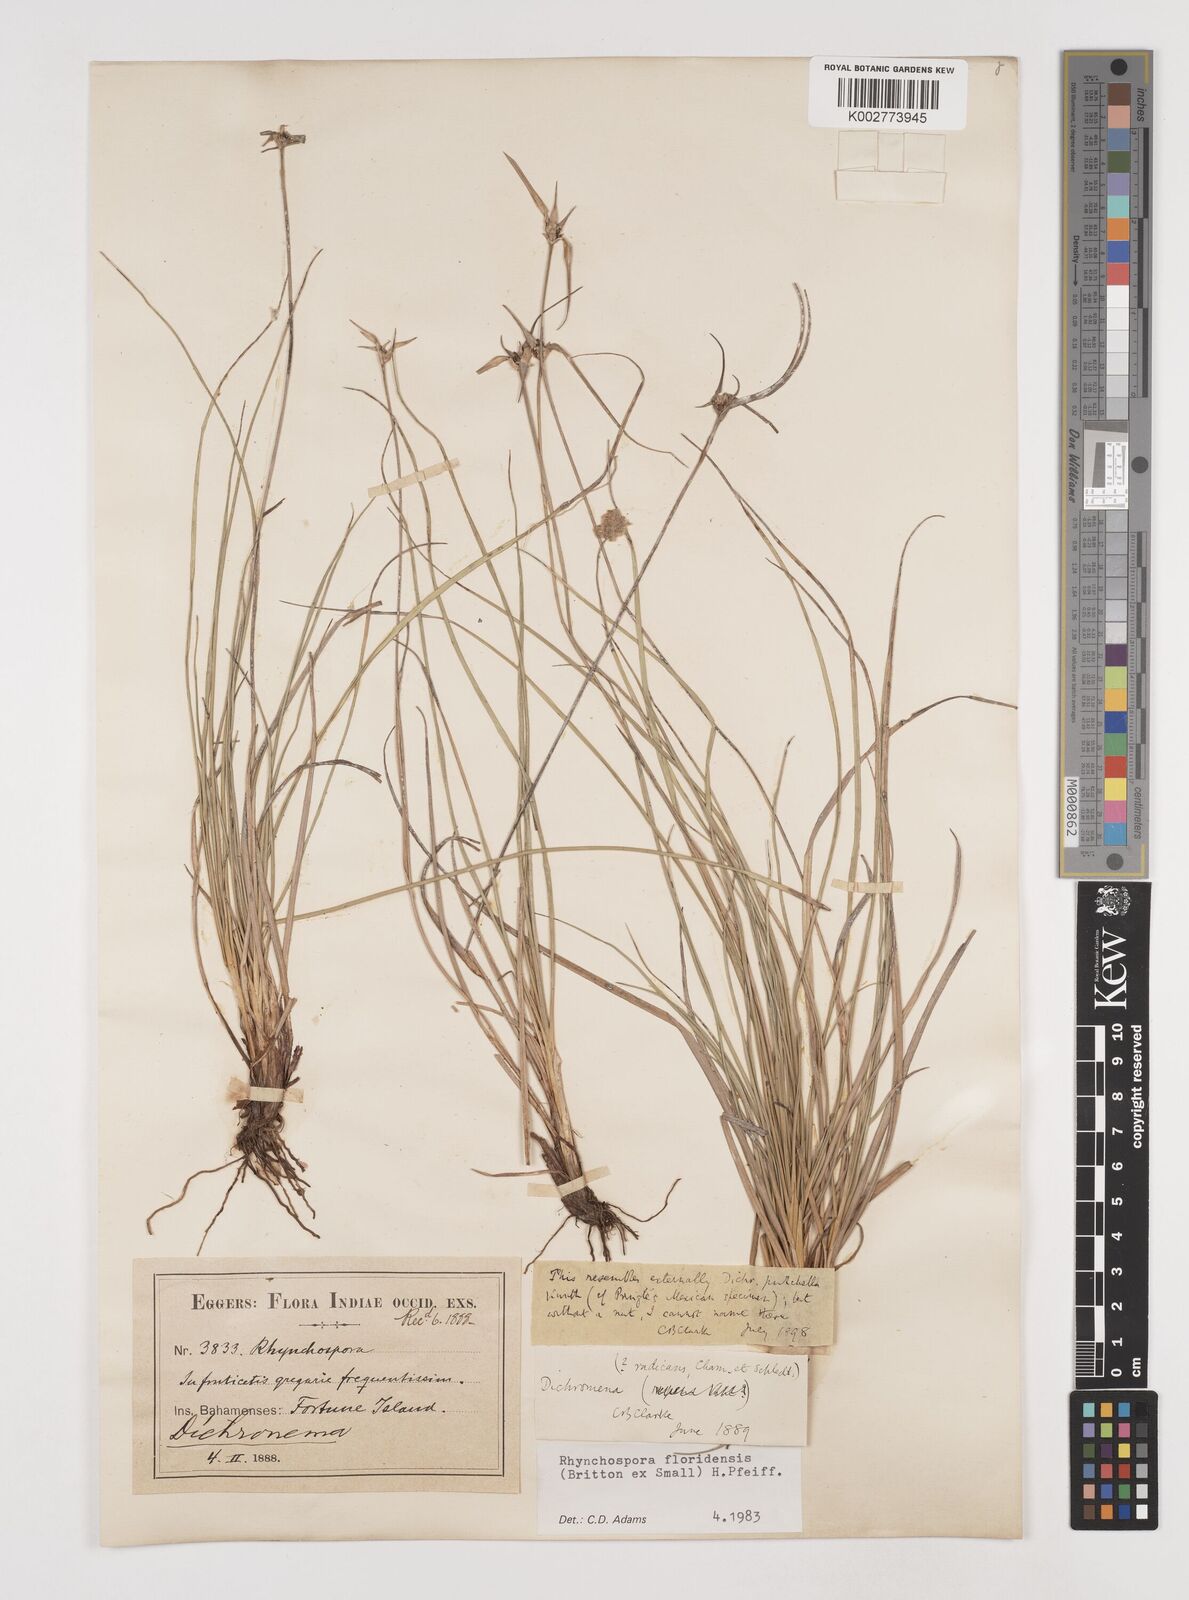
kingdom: Plantae
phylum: Tracheophyta
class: Liliopsida
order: Poales
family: Cyperaceae
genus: Rhynchospora
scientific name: Rhynchospora floridensis
